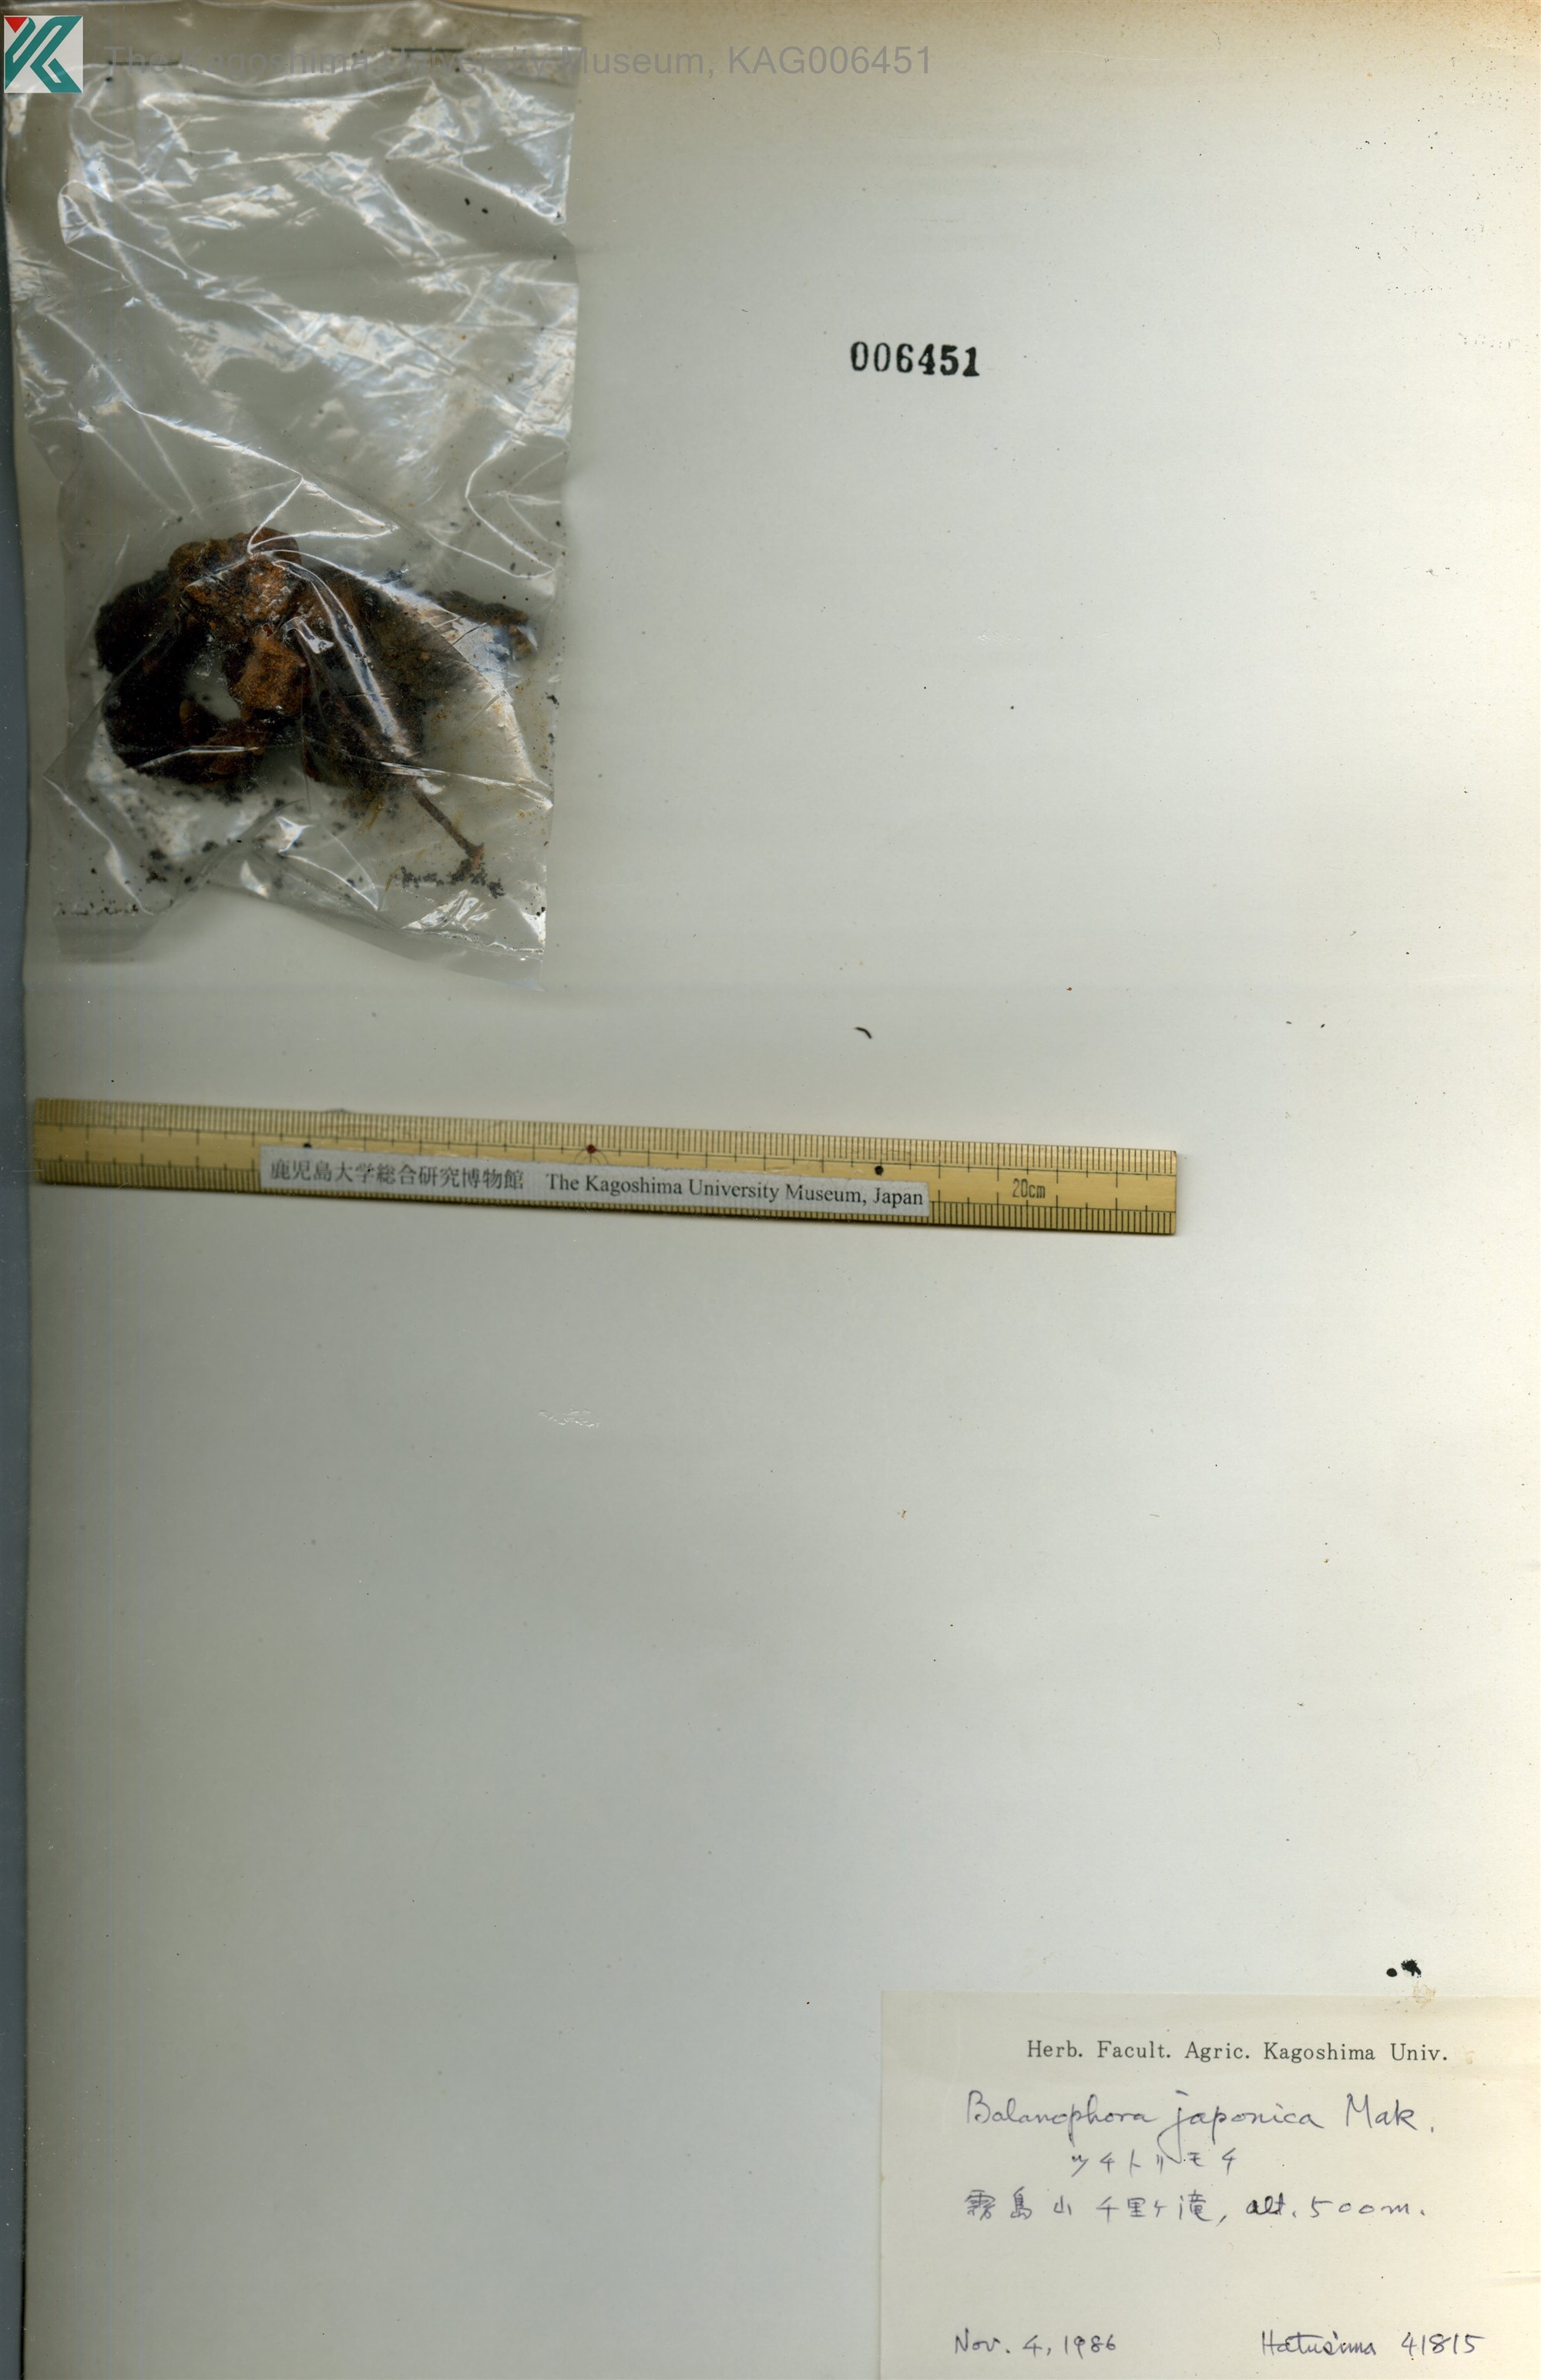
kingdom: Plantae
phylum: Tracheophyta
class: Magnoliopsida
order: Santalales
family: Balanophoraceae
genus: Balanophora
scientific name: Balanophora japonica
